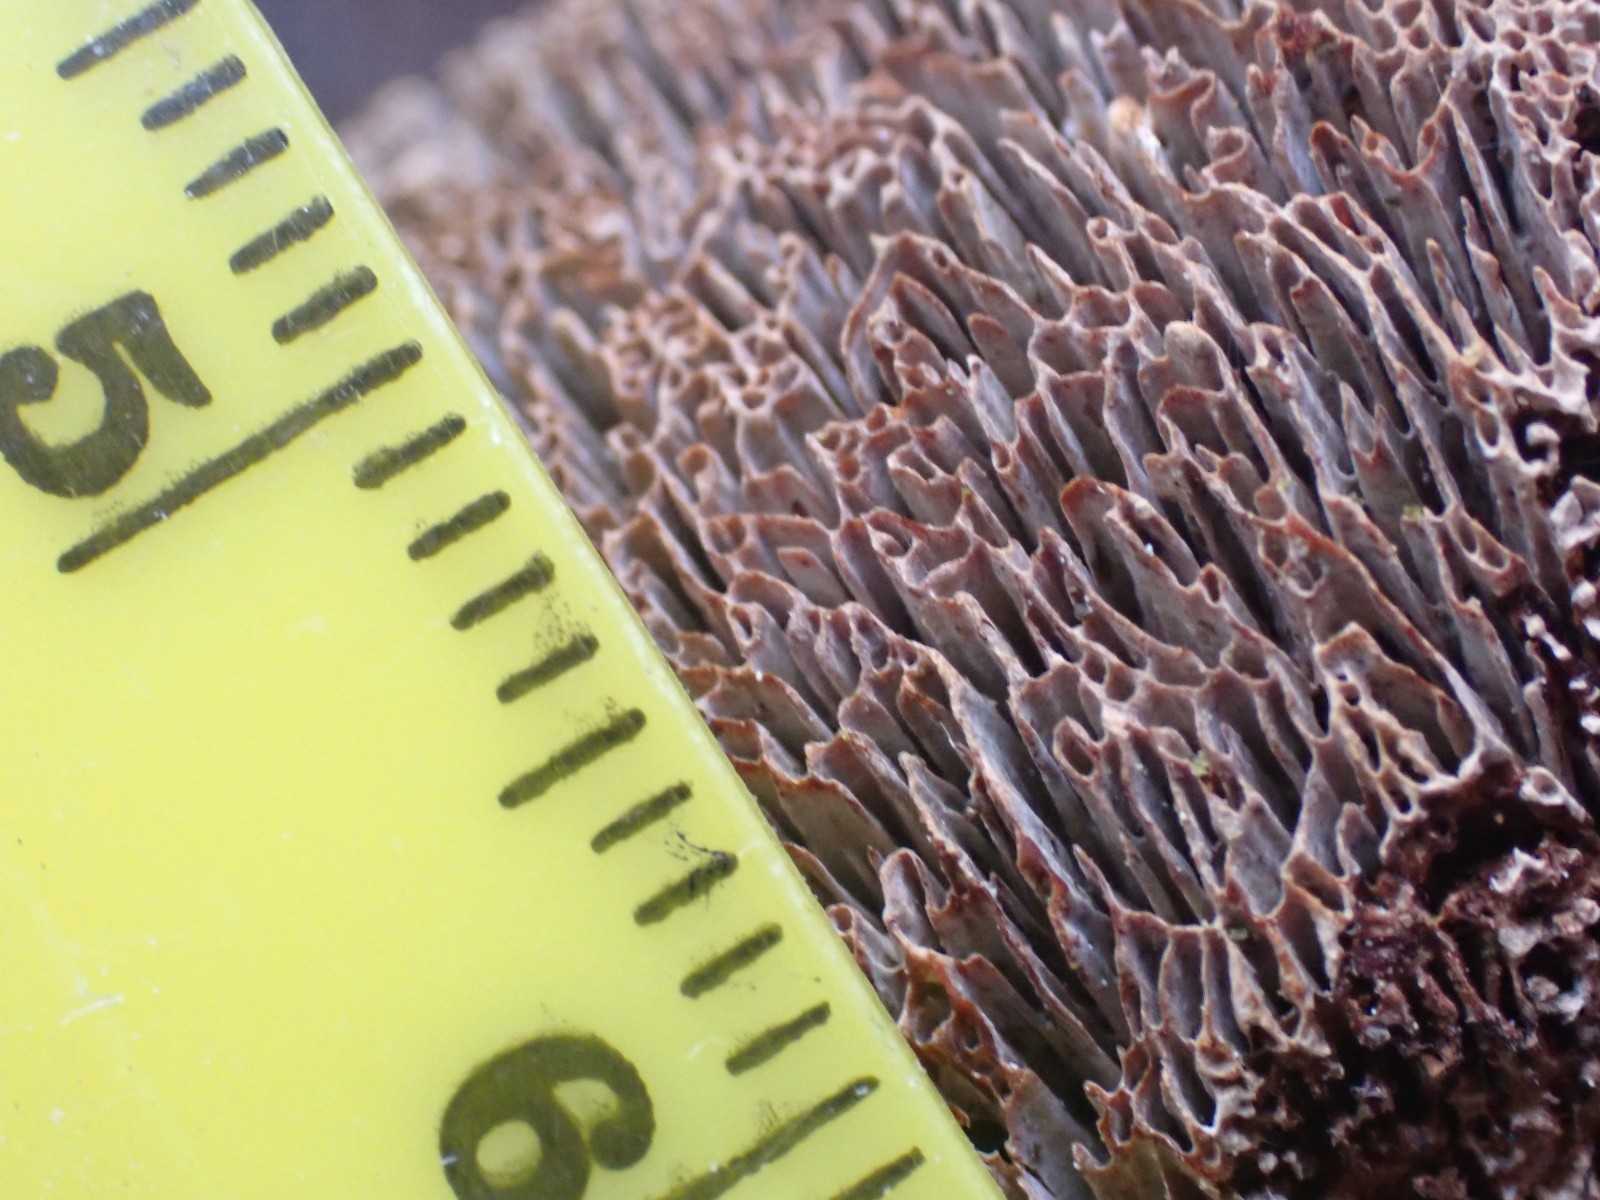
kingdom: Fungi
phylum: Basidiomycota
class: Agaricomycetes
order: Hymenochaetales
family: Hymenochaetaceae
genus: Fuscoporia
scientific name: Fuscoporia contigua
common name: grov ildporesvamp
